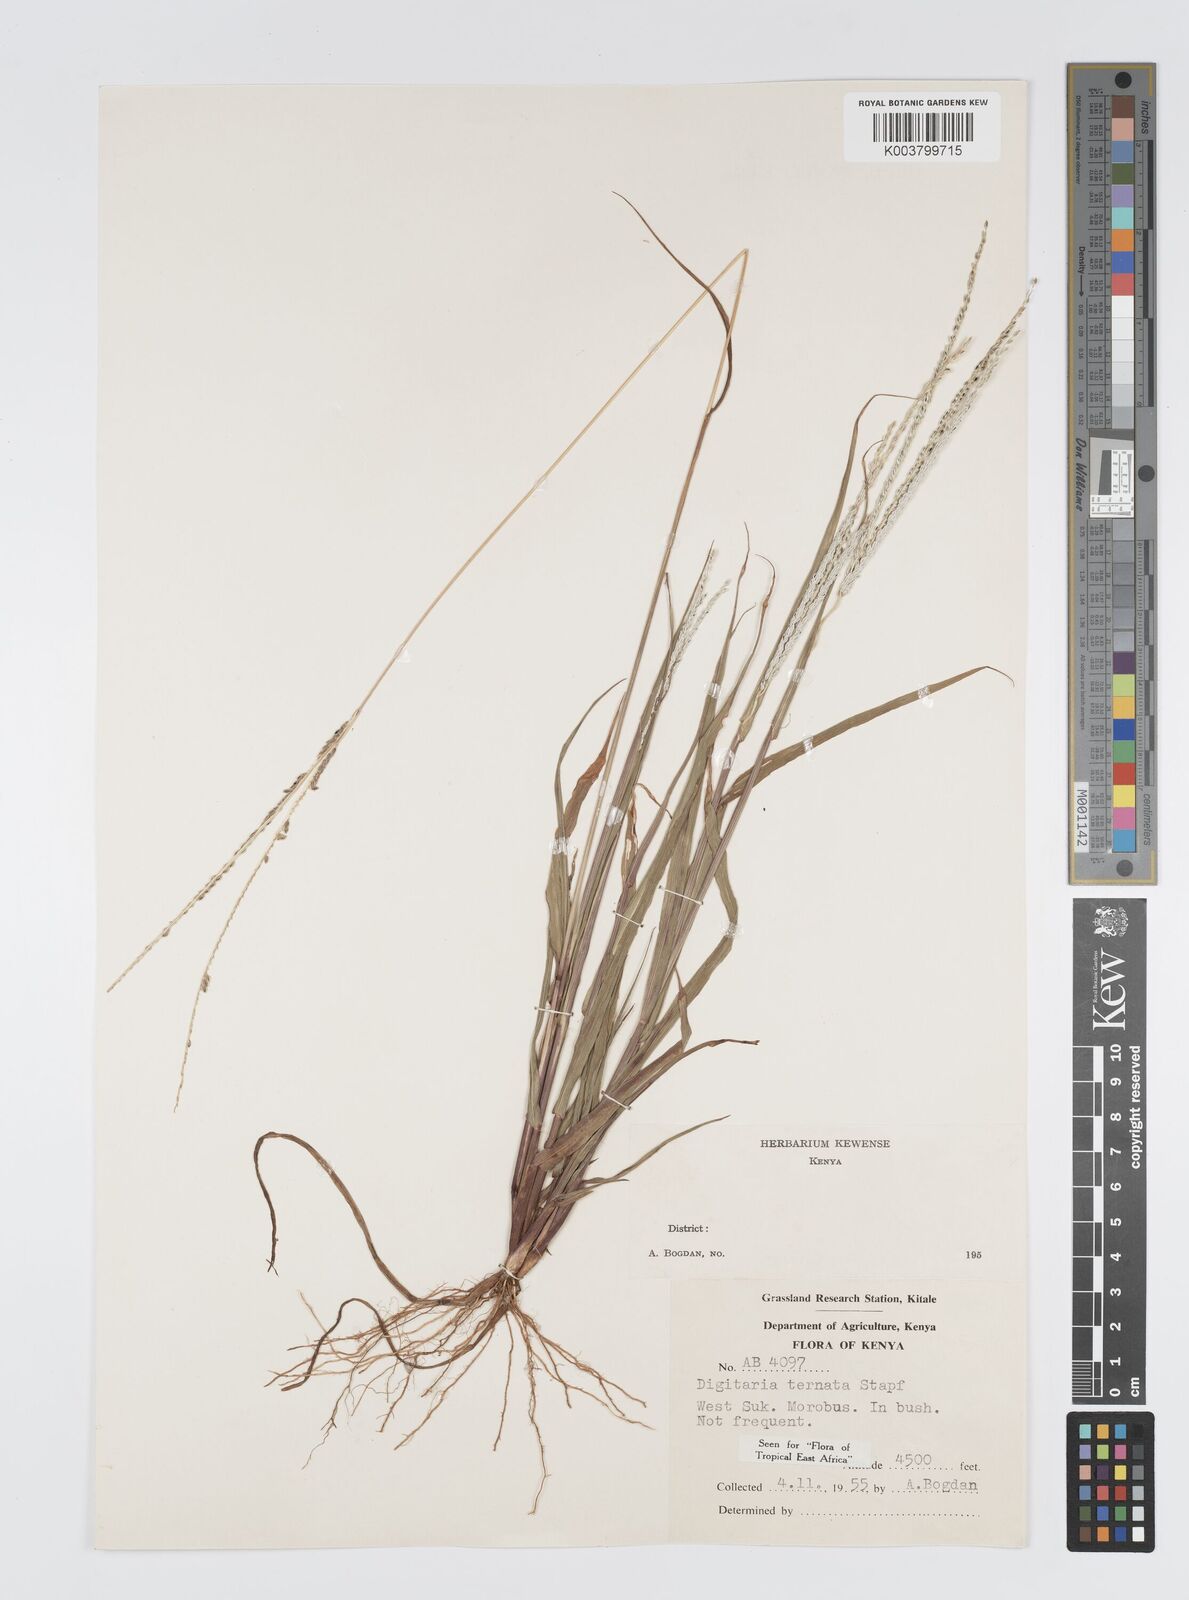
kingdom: Plantae
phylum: Tracheophyta
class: Liliopsida
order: Poales
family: Poaceae
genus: Digitaria
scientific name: Digitaria ternata
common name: Blackseed crabgrass
